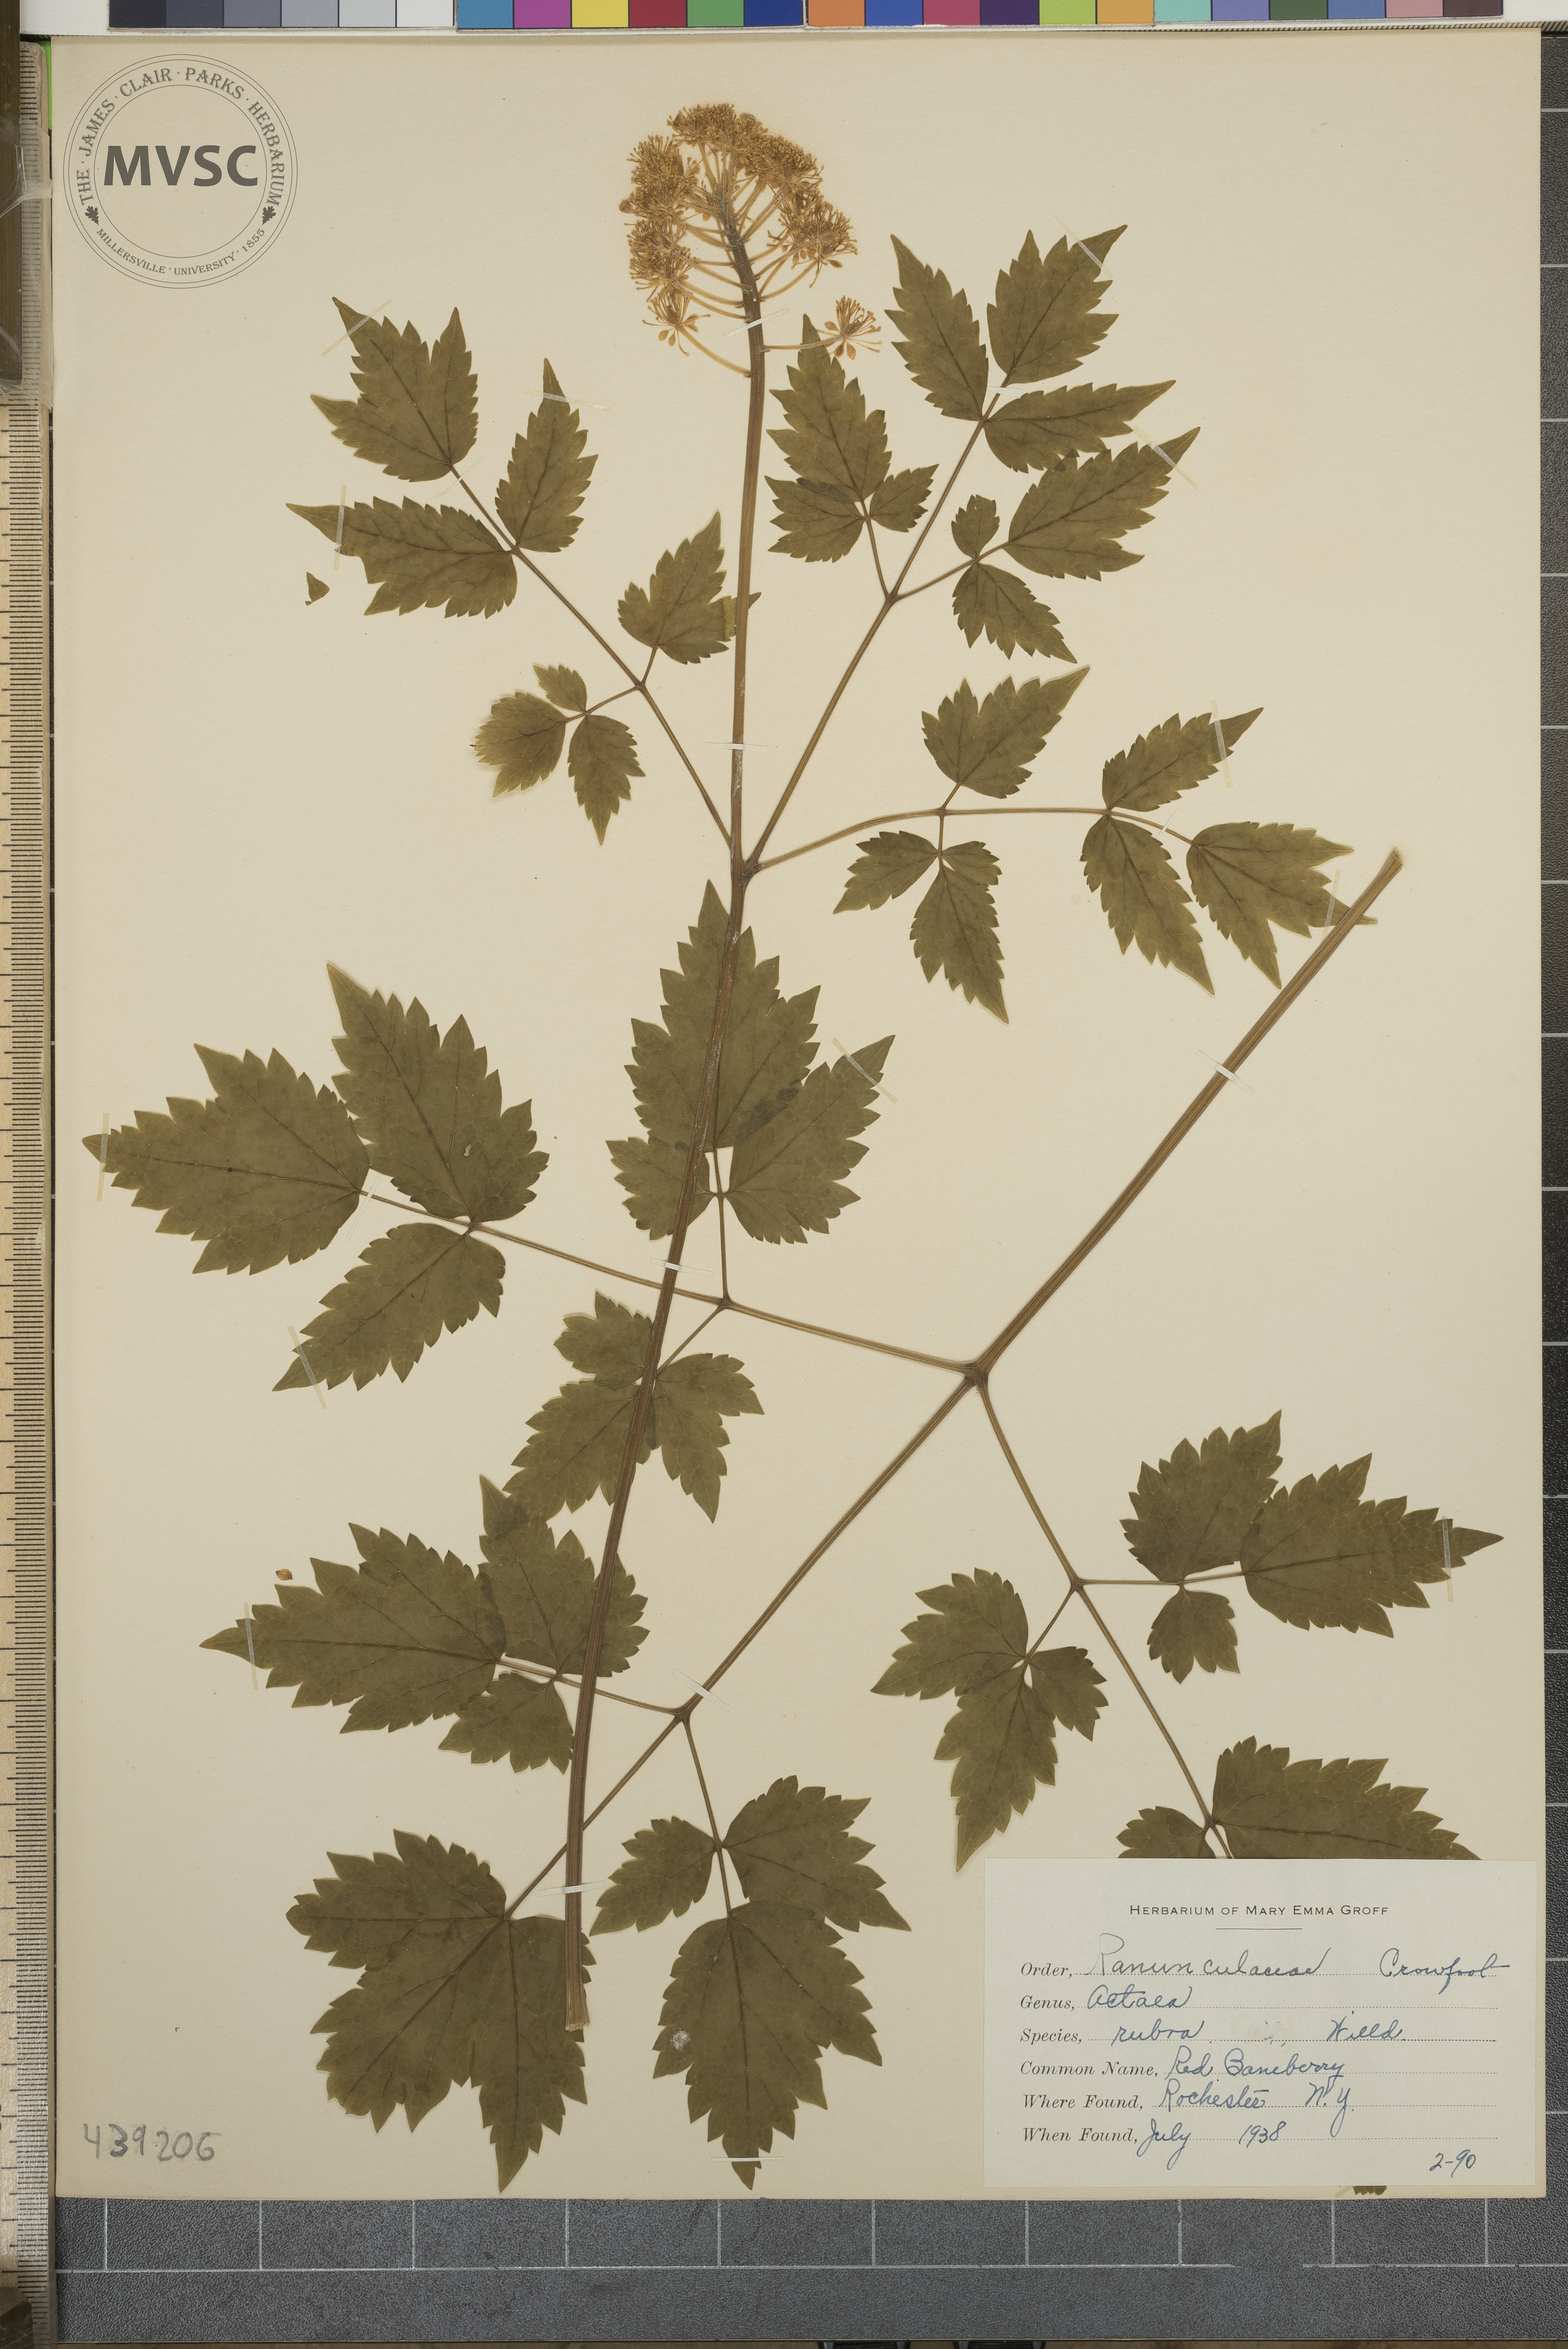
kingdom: Plantae
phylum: Tracheophyta
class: Magnoliopsida
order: Ranunculales
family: Ranunculaceae
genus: Actaea
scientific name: Actaea rubra
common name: Red baneberry
